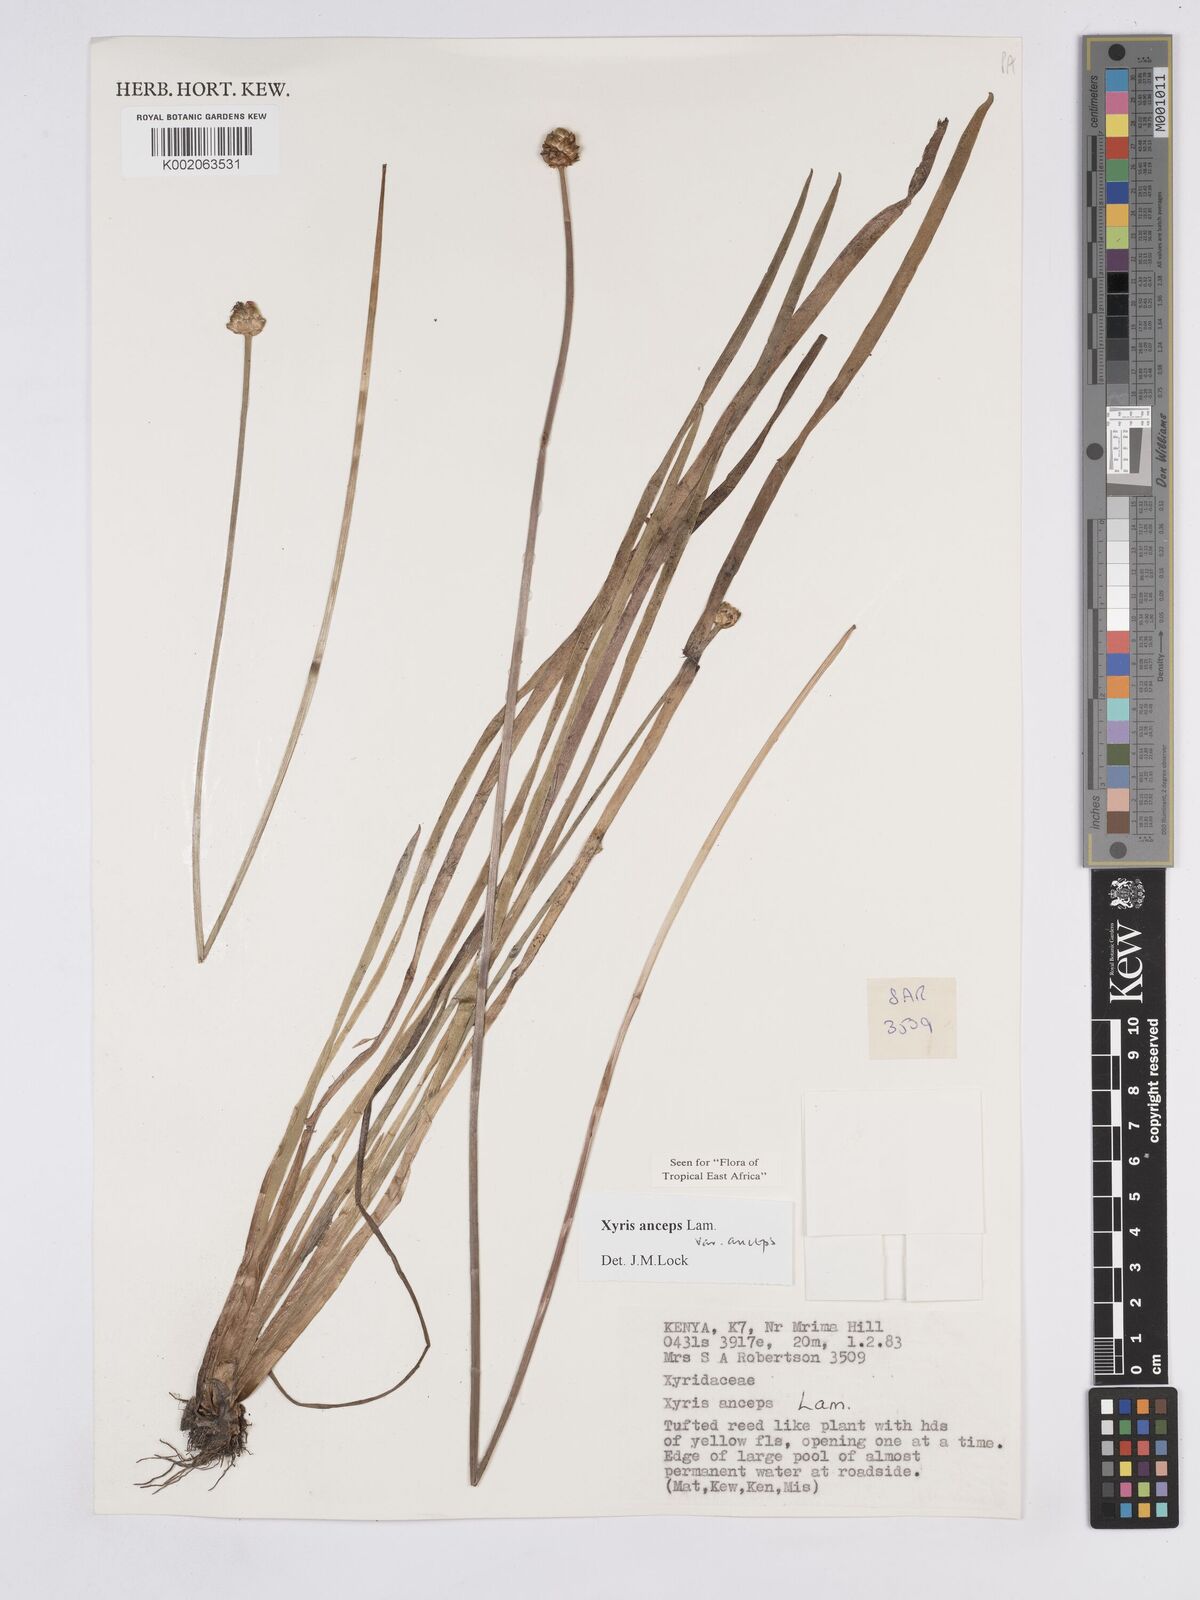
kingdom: Plantae
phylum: Tracheophyta
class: Liliopsida
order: Poales
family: Xyridaceae
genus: Xyris
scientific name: Xyris anceps
